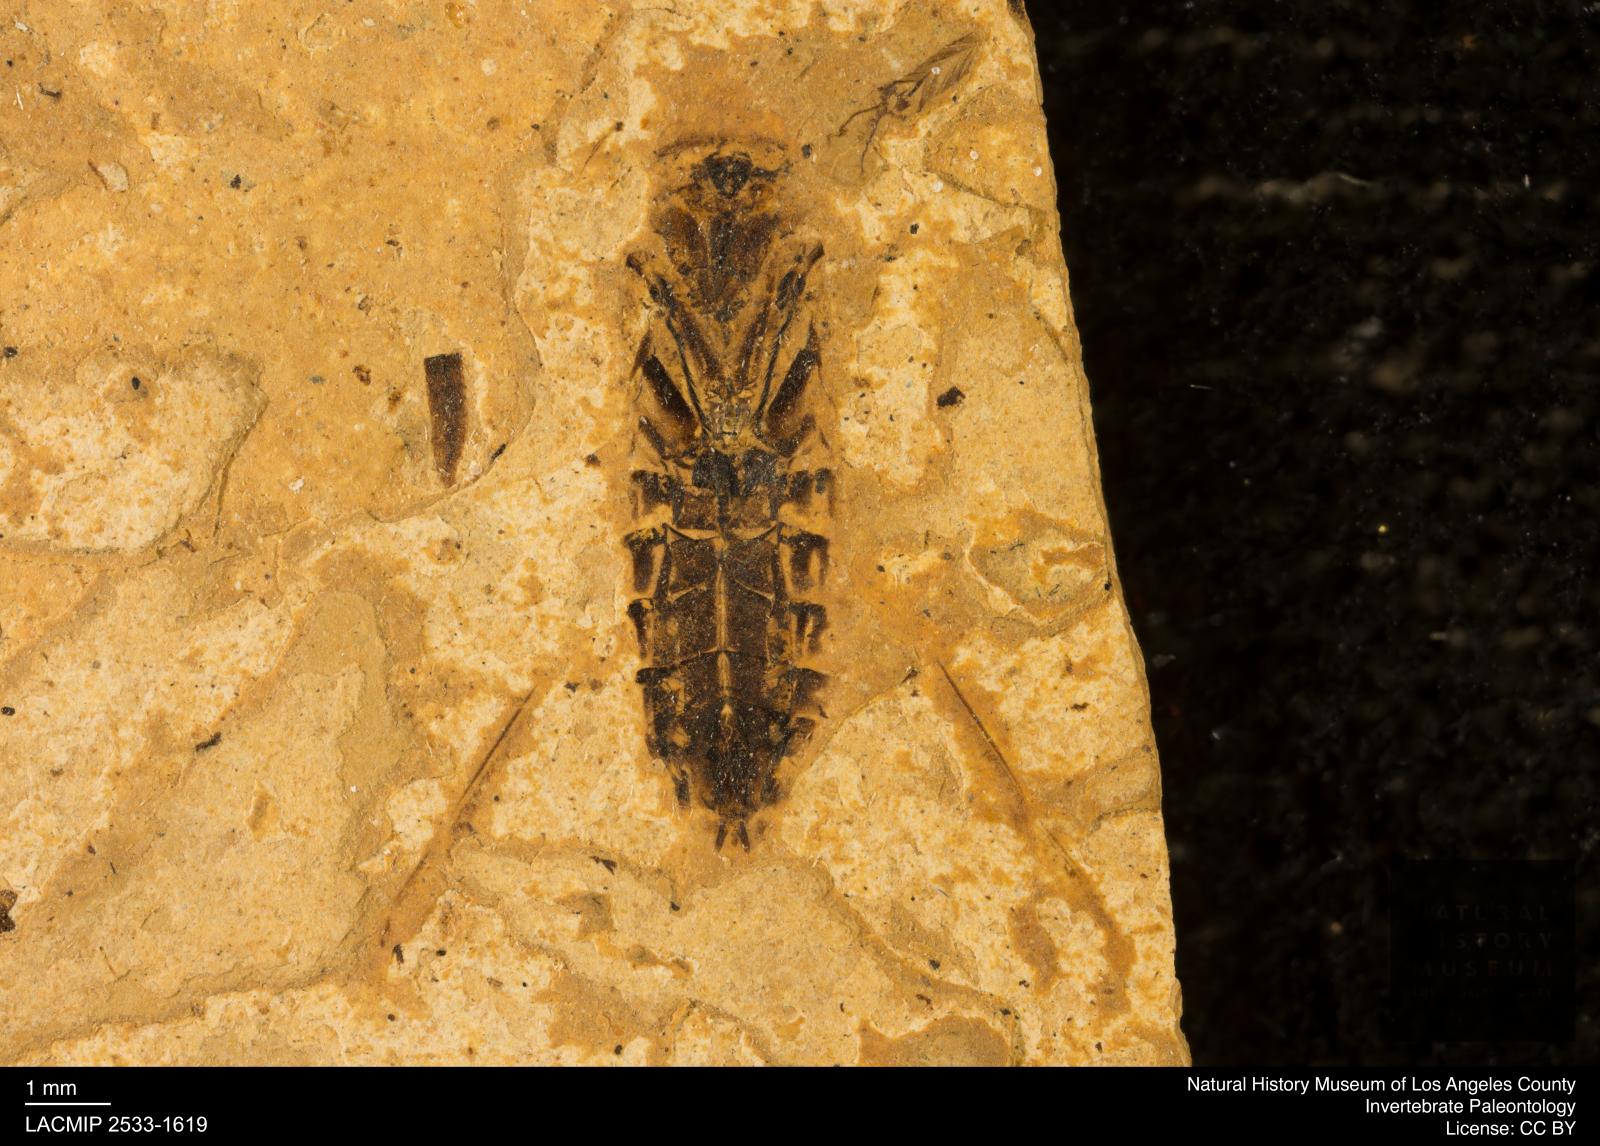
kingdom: Animalia
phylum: Arthropoda
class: Insecta
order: Hemiptera
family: Notonectidae
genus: Notonecta
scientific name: Notonecta
